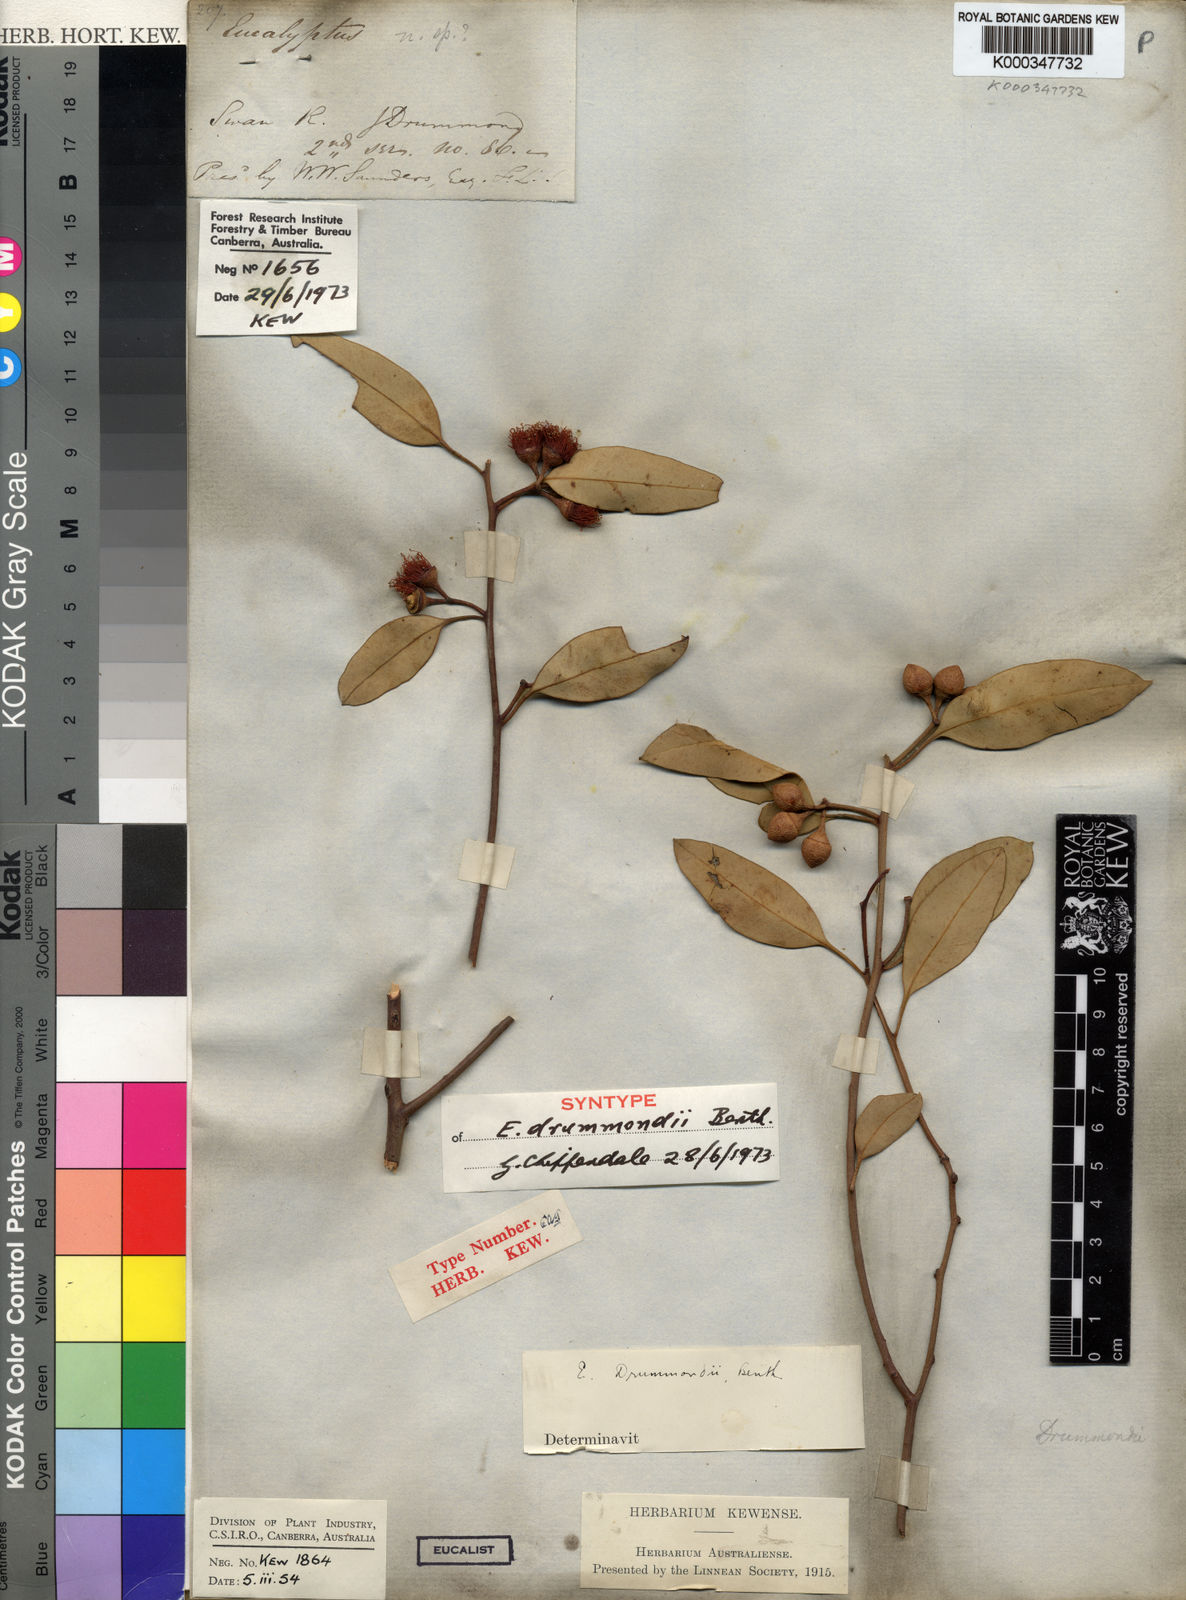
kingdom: Plantae
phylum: Tracheophyta
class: Magnoliopsida
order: Myrtales
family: Myrtaceae
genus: Eucalyptus
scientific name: Eucalyptus drummondii
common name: Drummond's mallee
